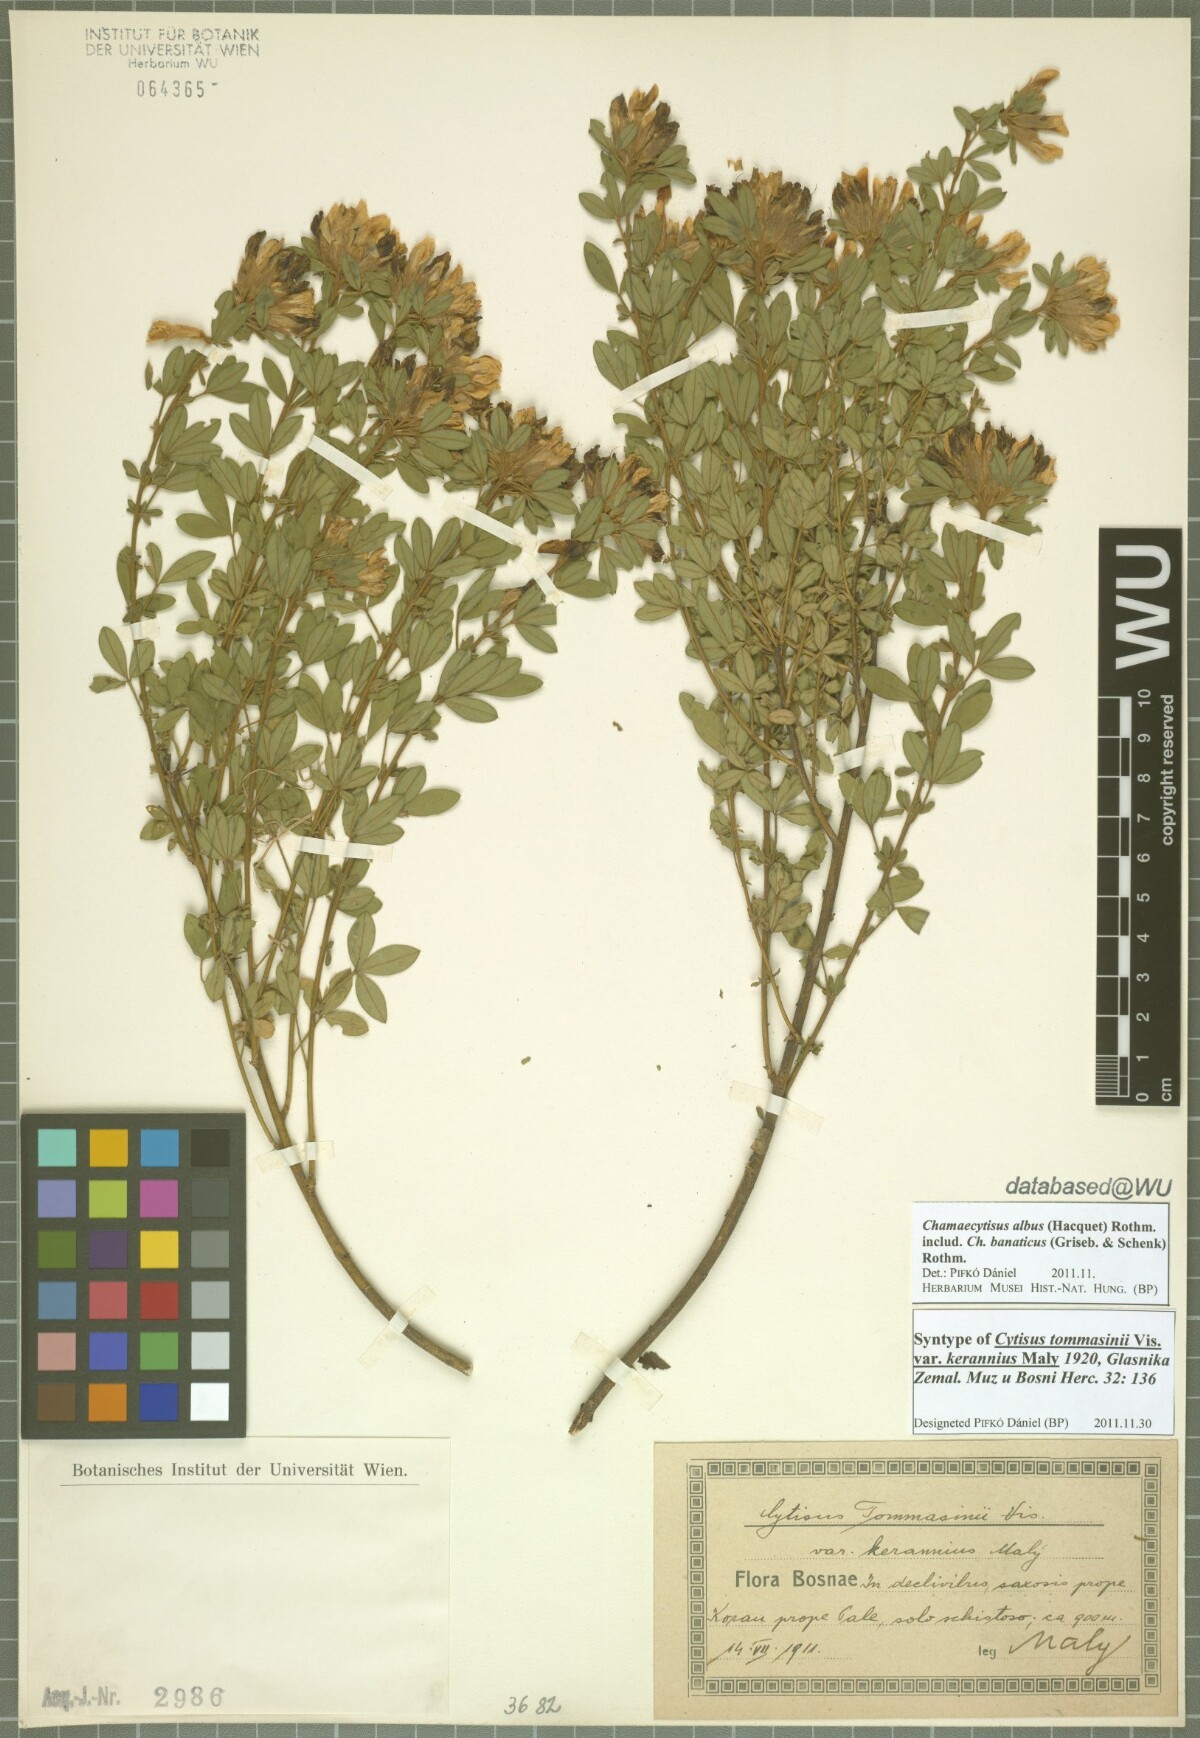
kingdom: Plantae
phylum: Tracheophyta
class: Magnoliopsida
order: Fabales
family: Fabaceae
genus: Chamaecytisus
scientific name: Chamaecytisus tommasinii
